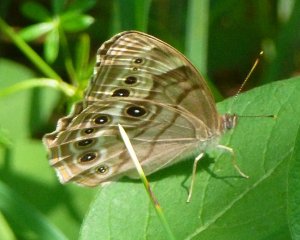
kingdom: Animalia
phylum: Arthropoda
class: Insecta
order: Lepidoptera
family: Nymphalidae
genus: Lethe
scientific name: Lethe anthedon
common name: Northern Pearly-Eye
